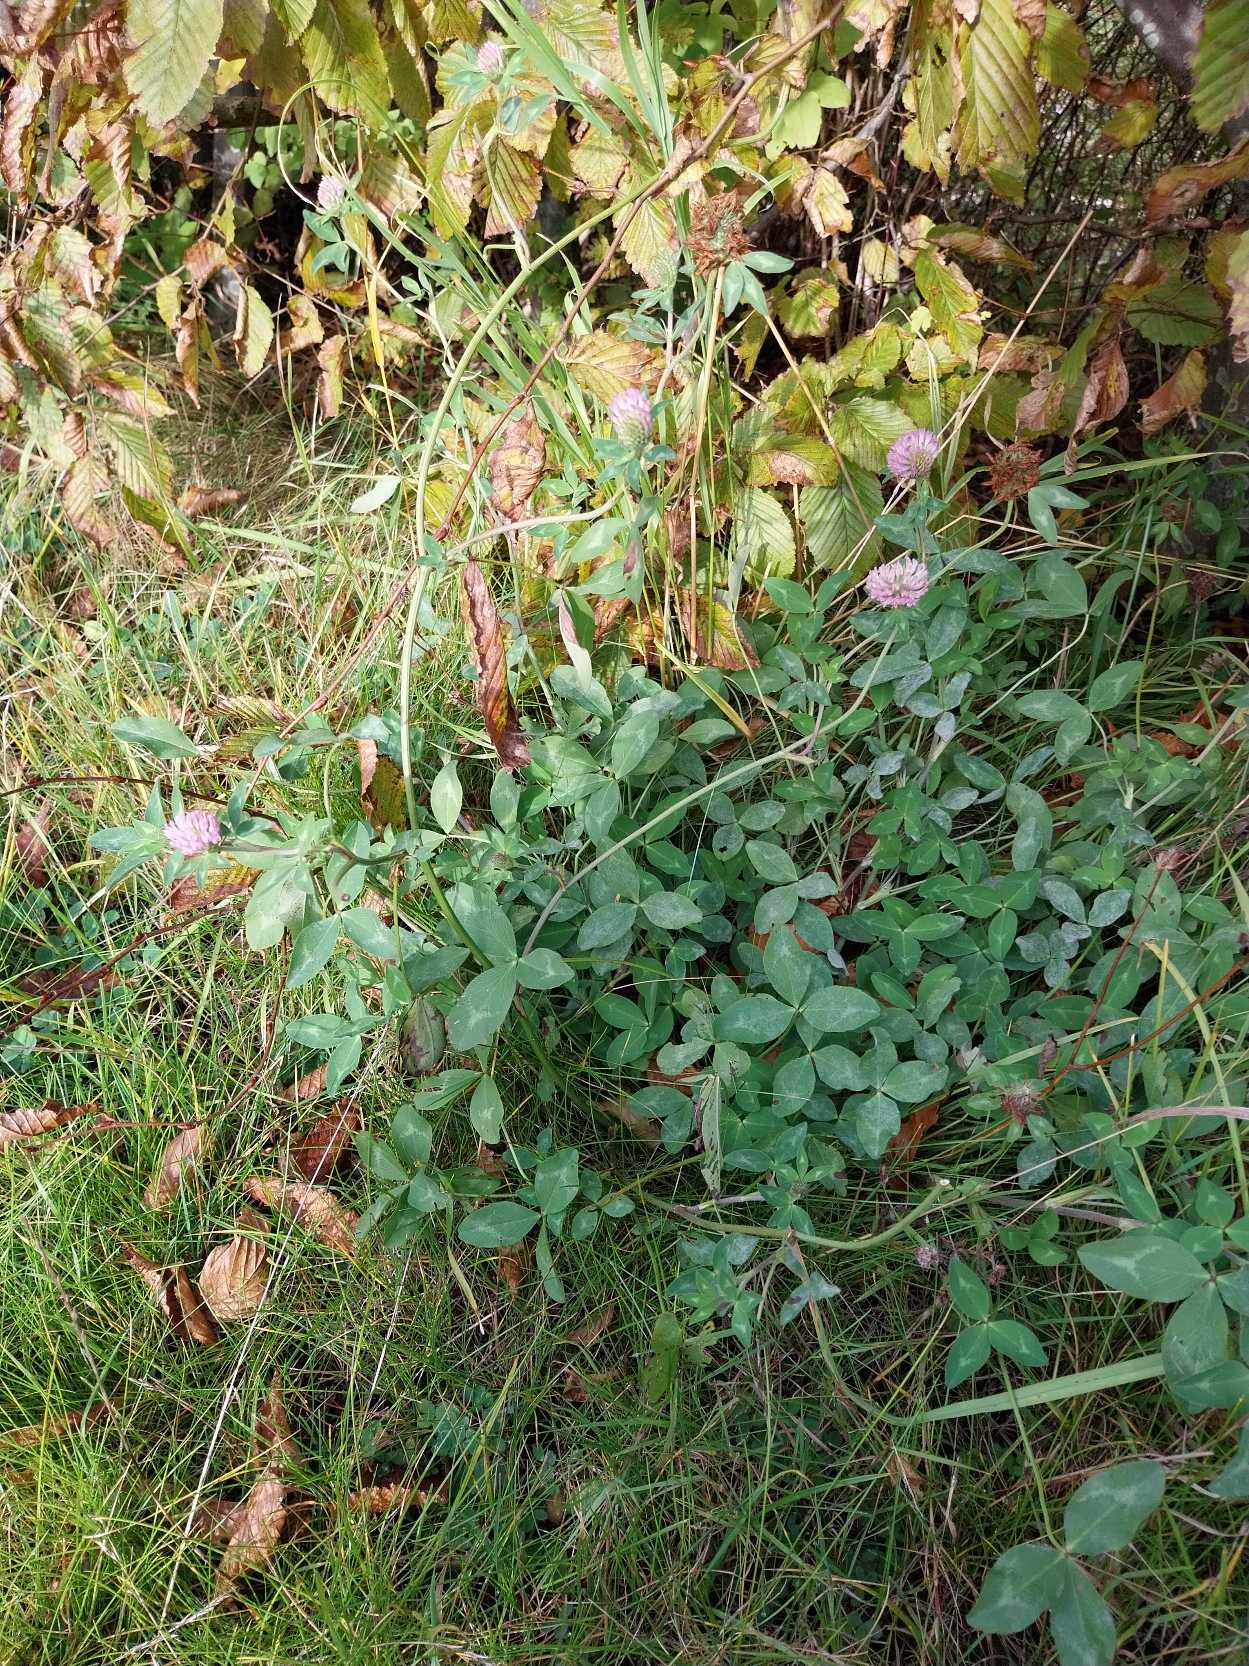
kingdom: Plantae
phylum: Tracheophyta
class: Magnoliopsida
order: Fabales
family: Fabaceae
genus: Trifolium
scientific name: Trifolium pratense
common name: Rød-kløver
